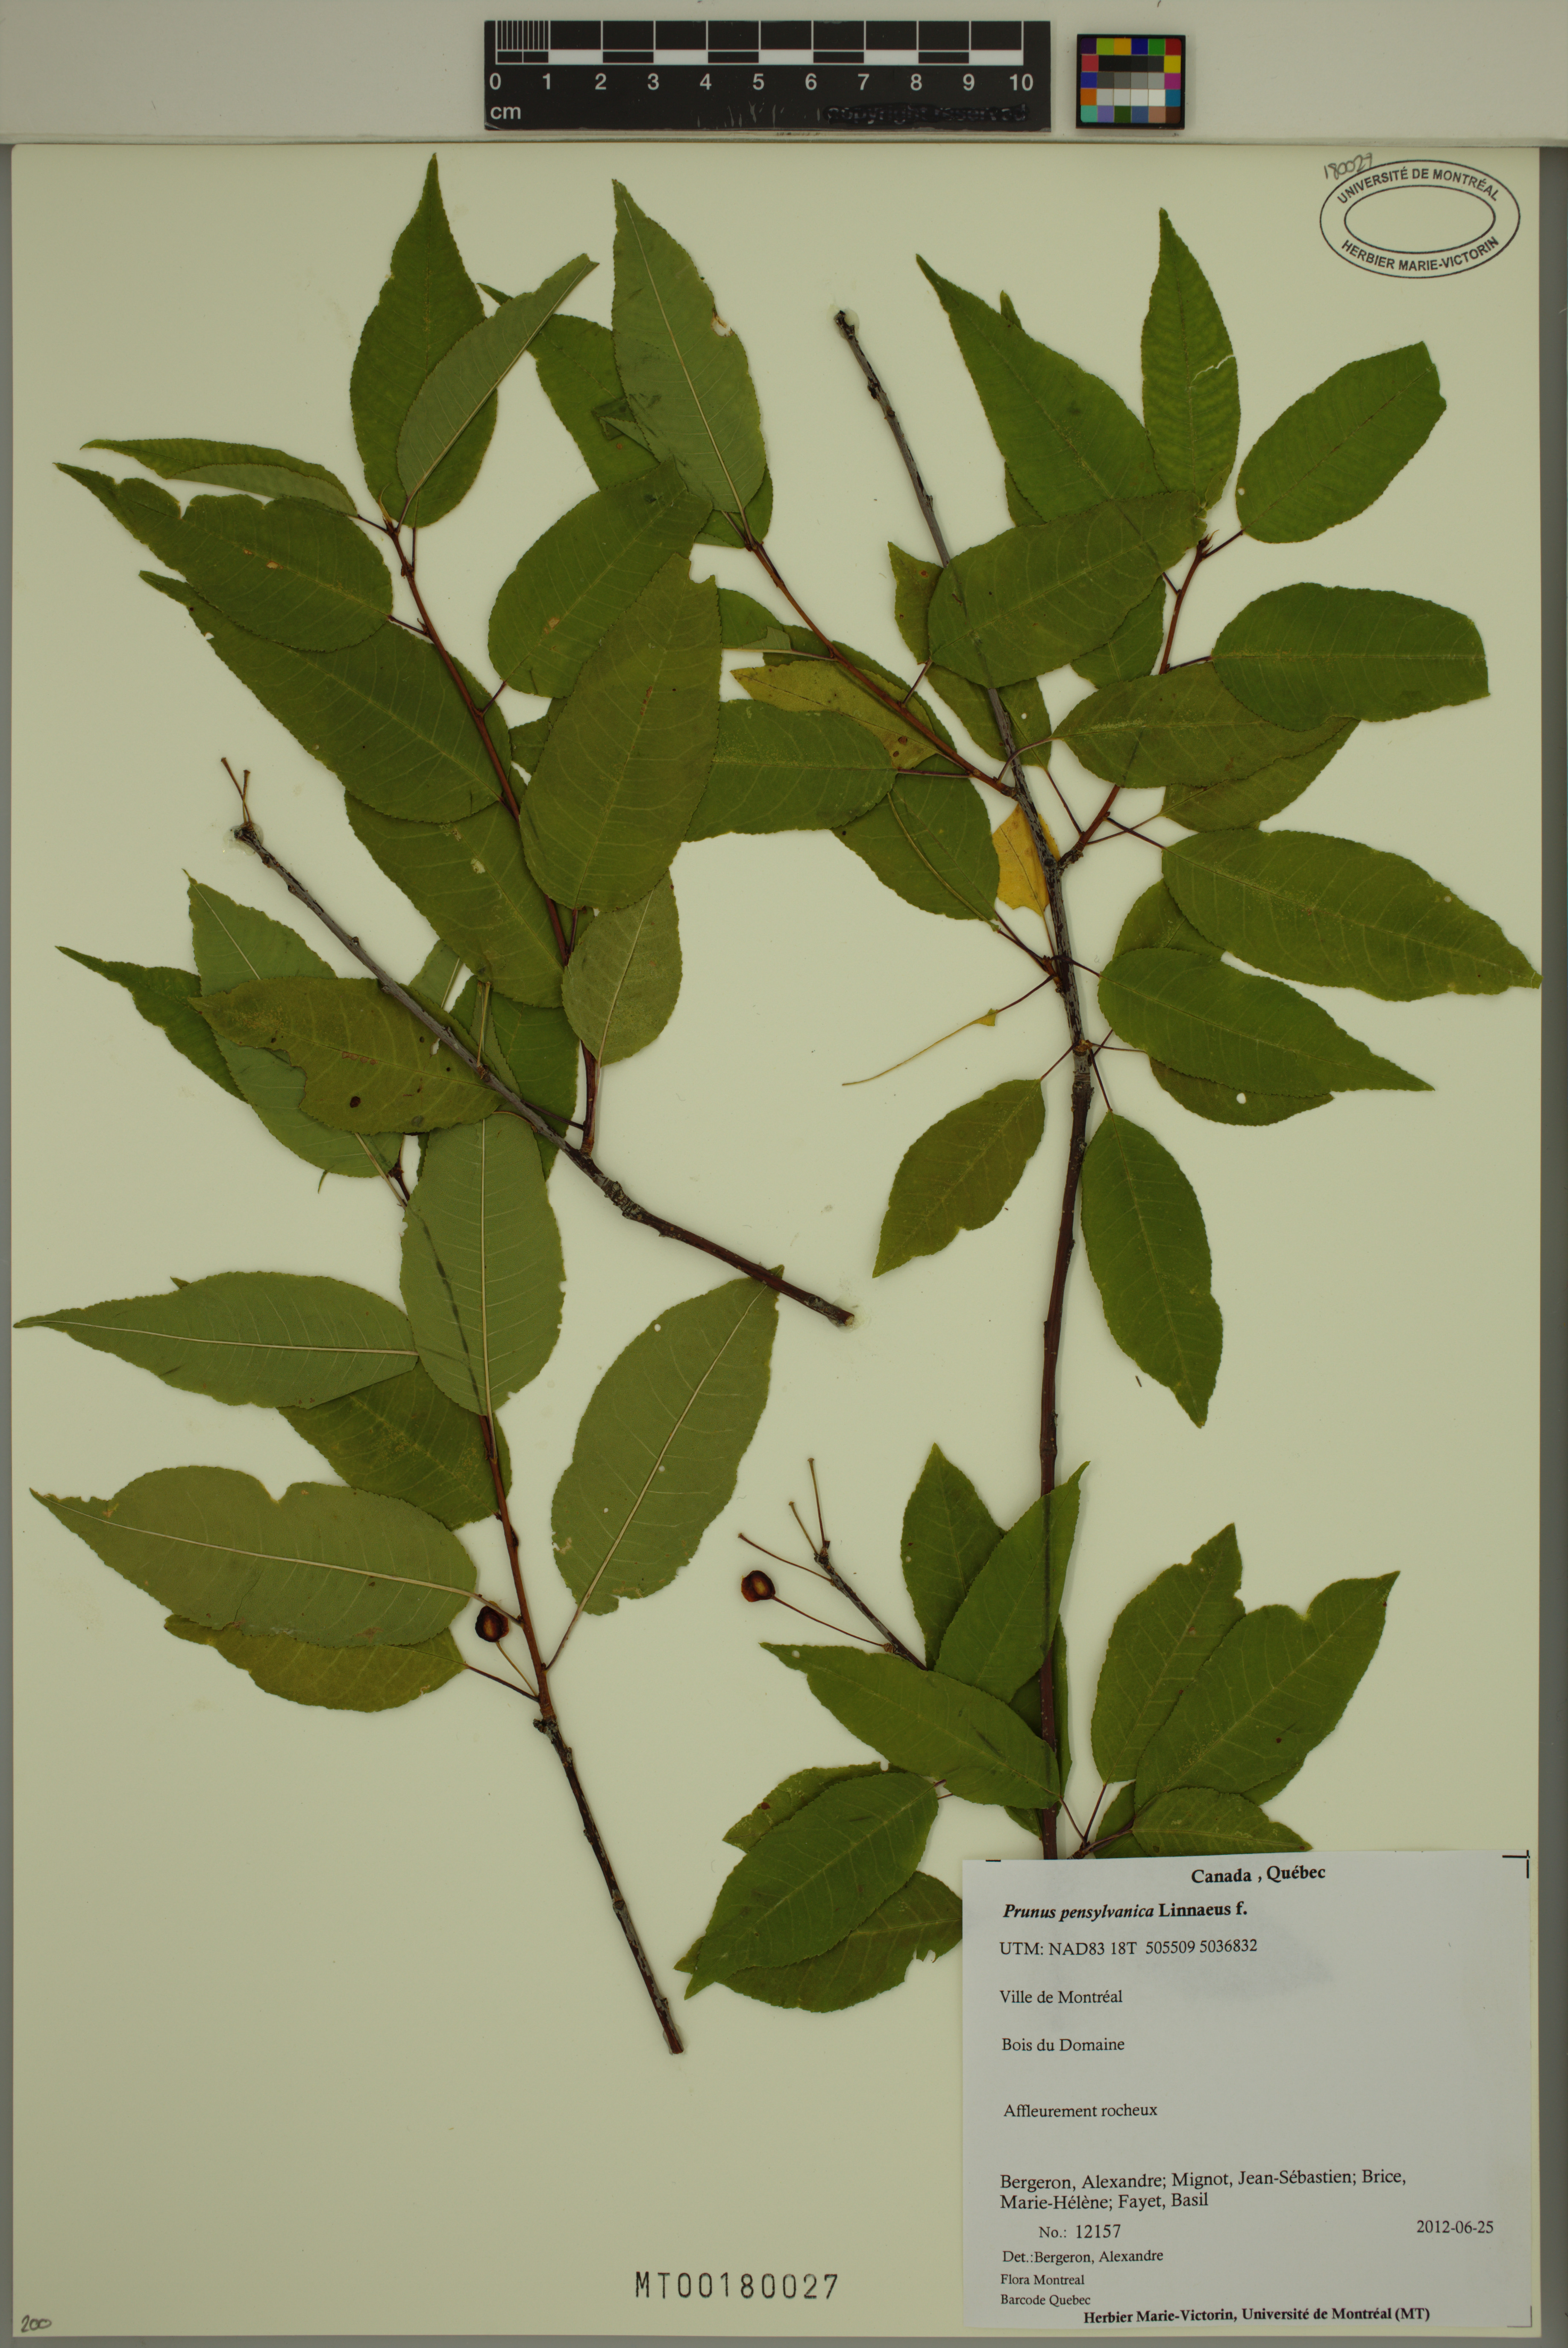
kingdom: Plantae
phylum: Tracheophyta
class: Magnoliopsida
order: Rosales
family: Rosaceae
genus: Prunus
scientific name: Prunus pensylvanica
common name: Pin cherry
